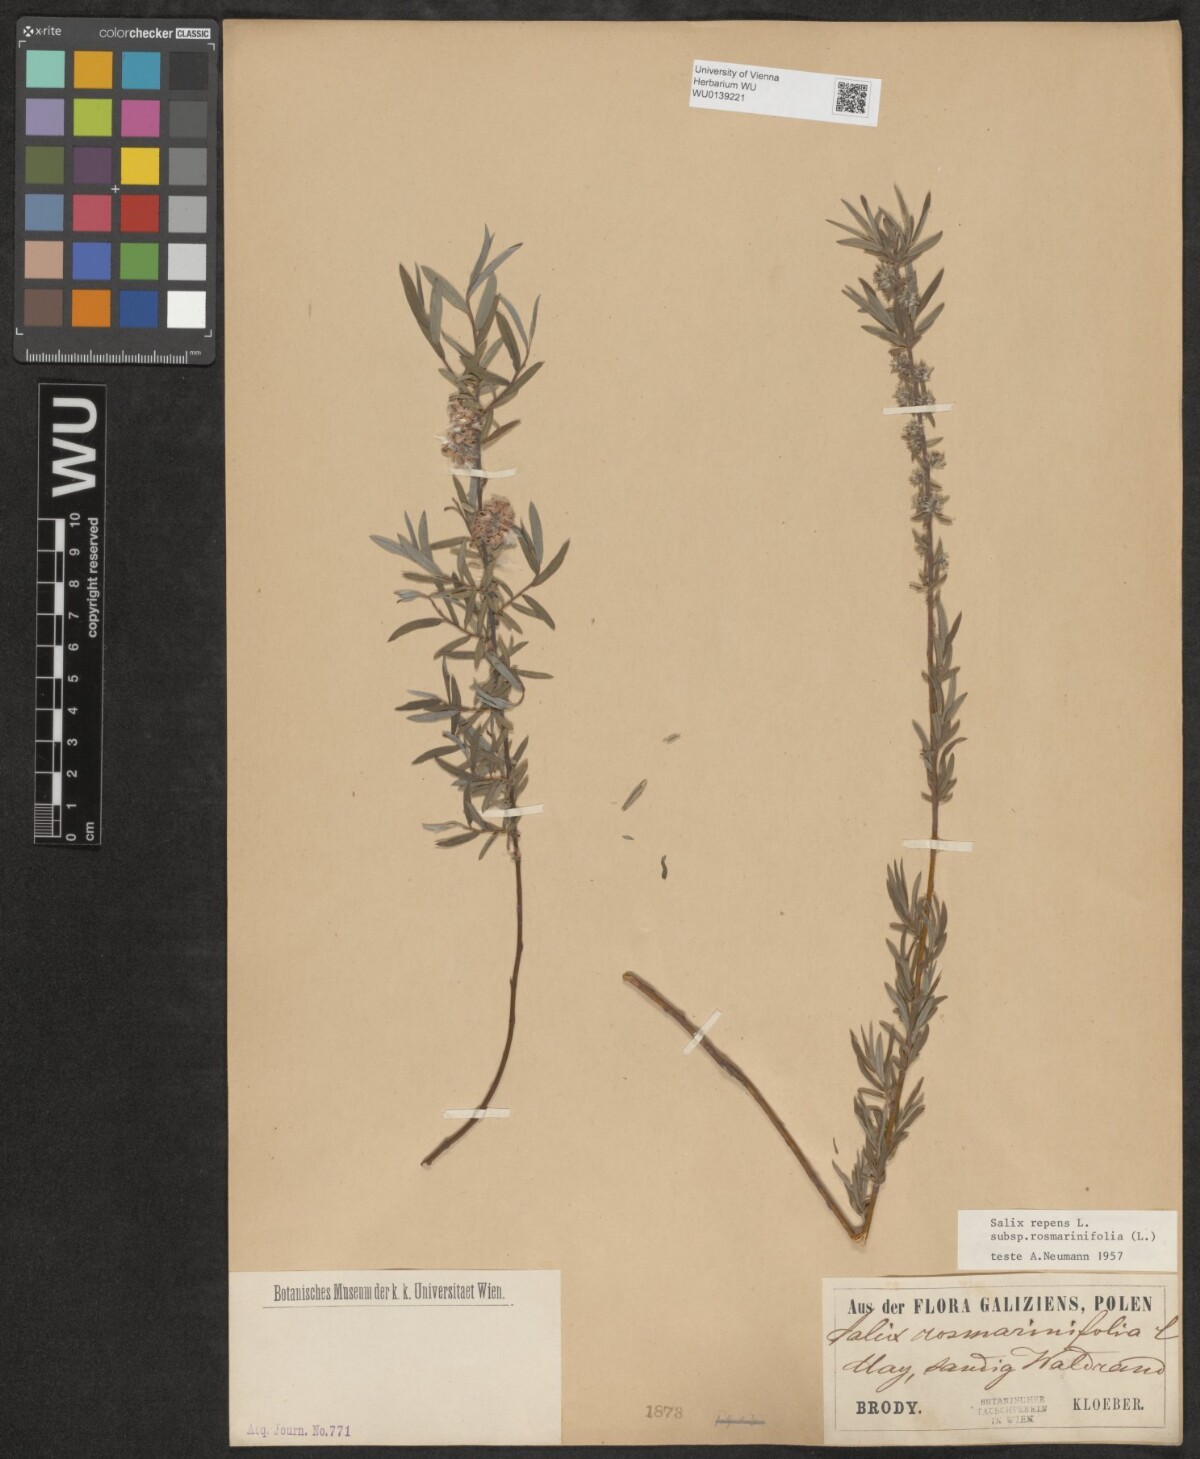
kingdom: Plantae
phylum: Tracheophyta
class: Magnoliopsida
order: Malpighiales
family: Salicaceae
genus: Salix
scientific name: Salix repens
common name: Creeping willow
